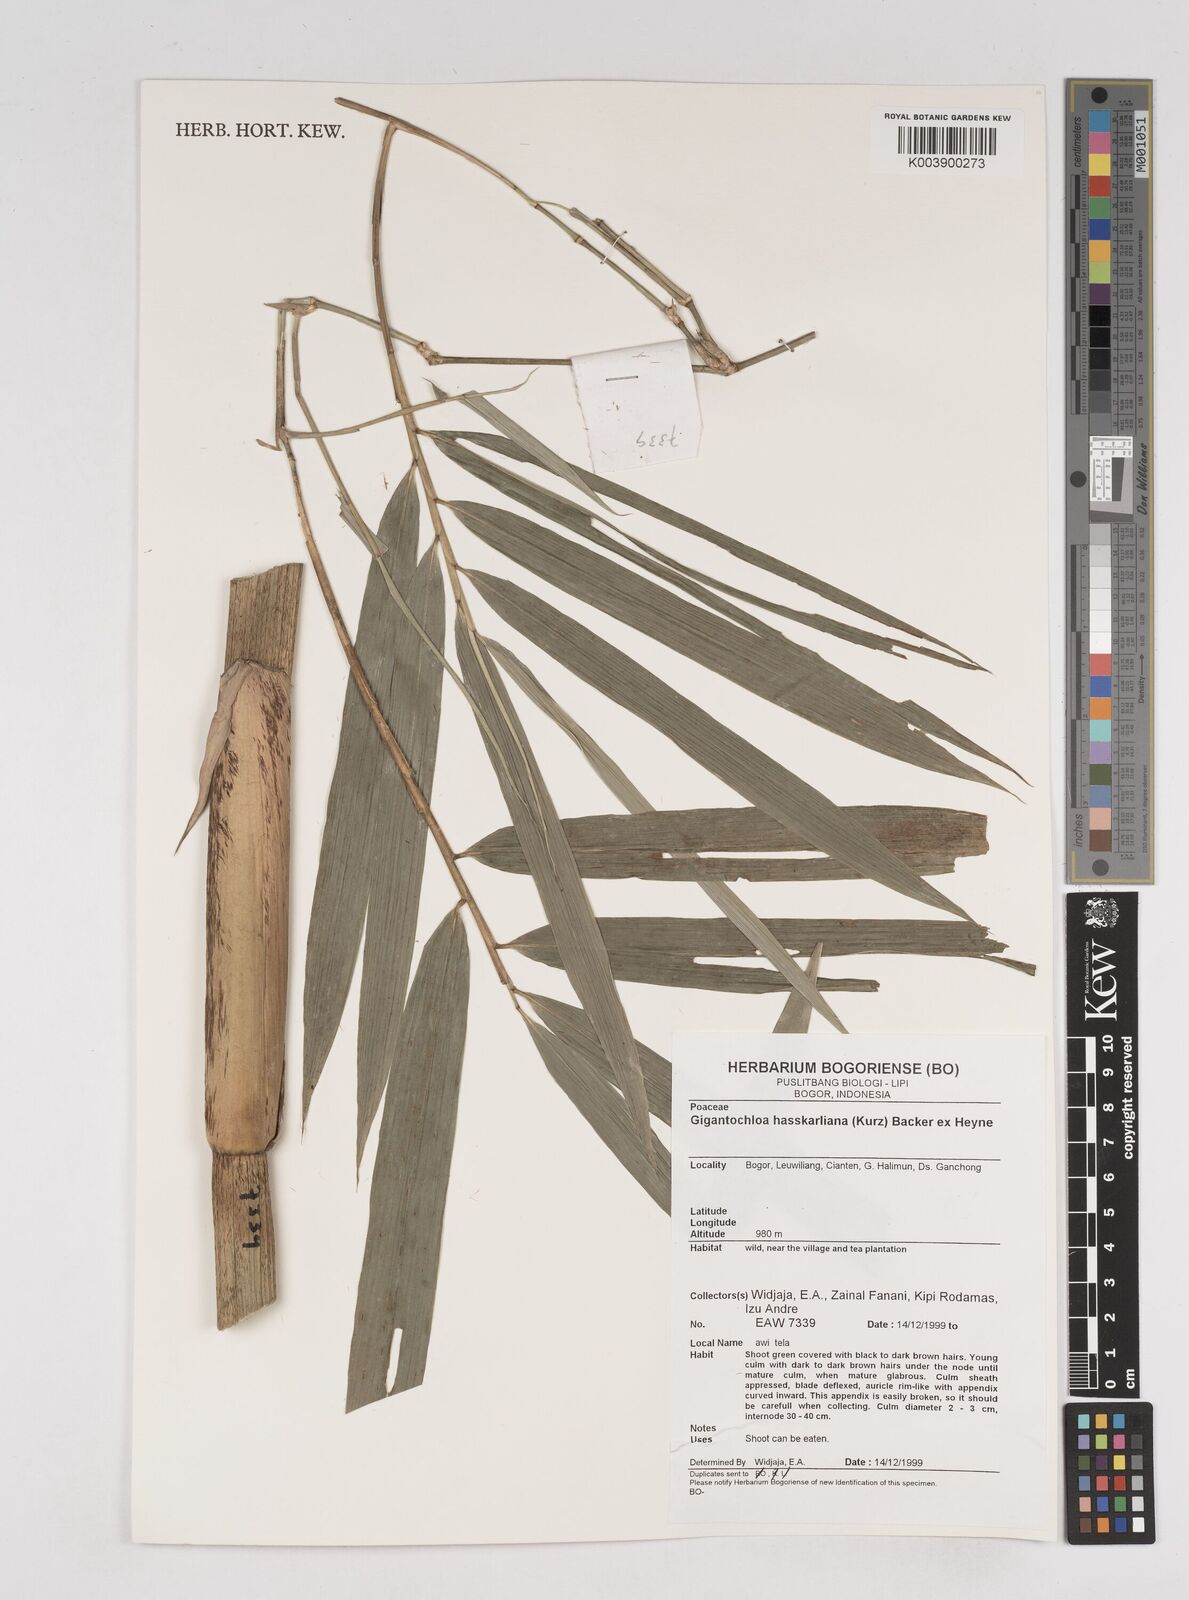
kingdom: Plantae
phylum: Tracheophyta
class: Liliopsida
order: Poales
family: Poaceae
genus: Gigantochloa
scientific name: Gigantochloa hasskarliana
